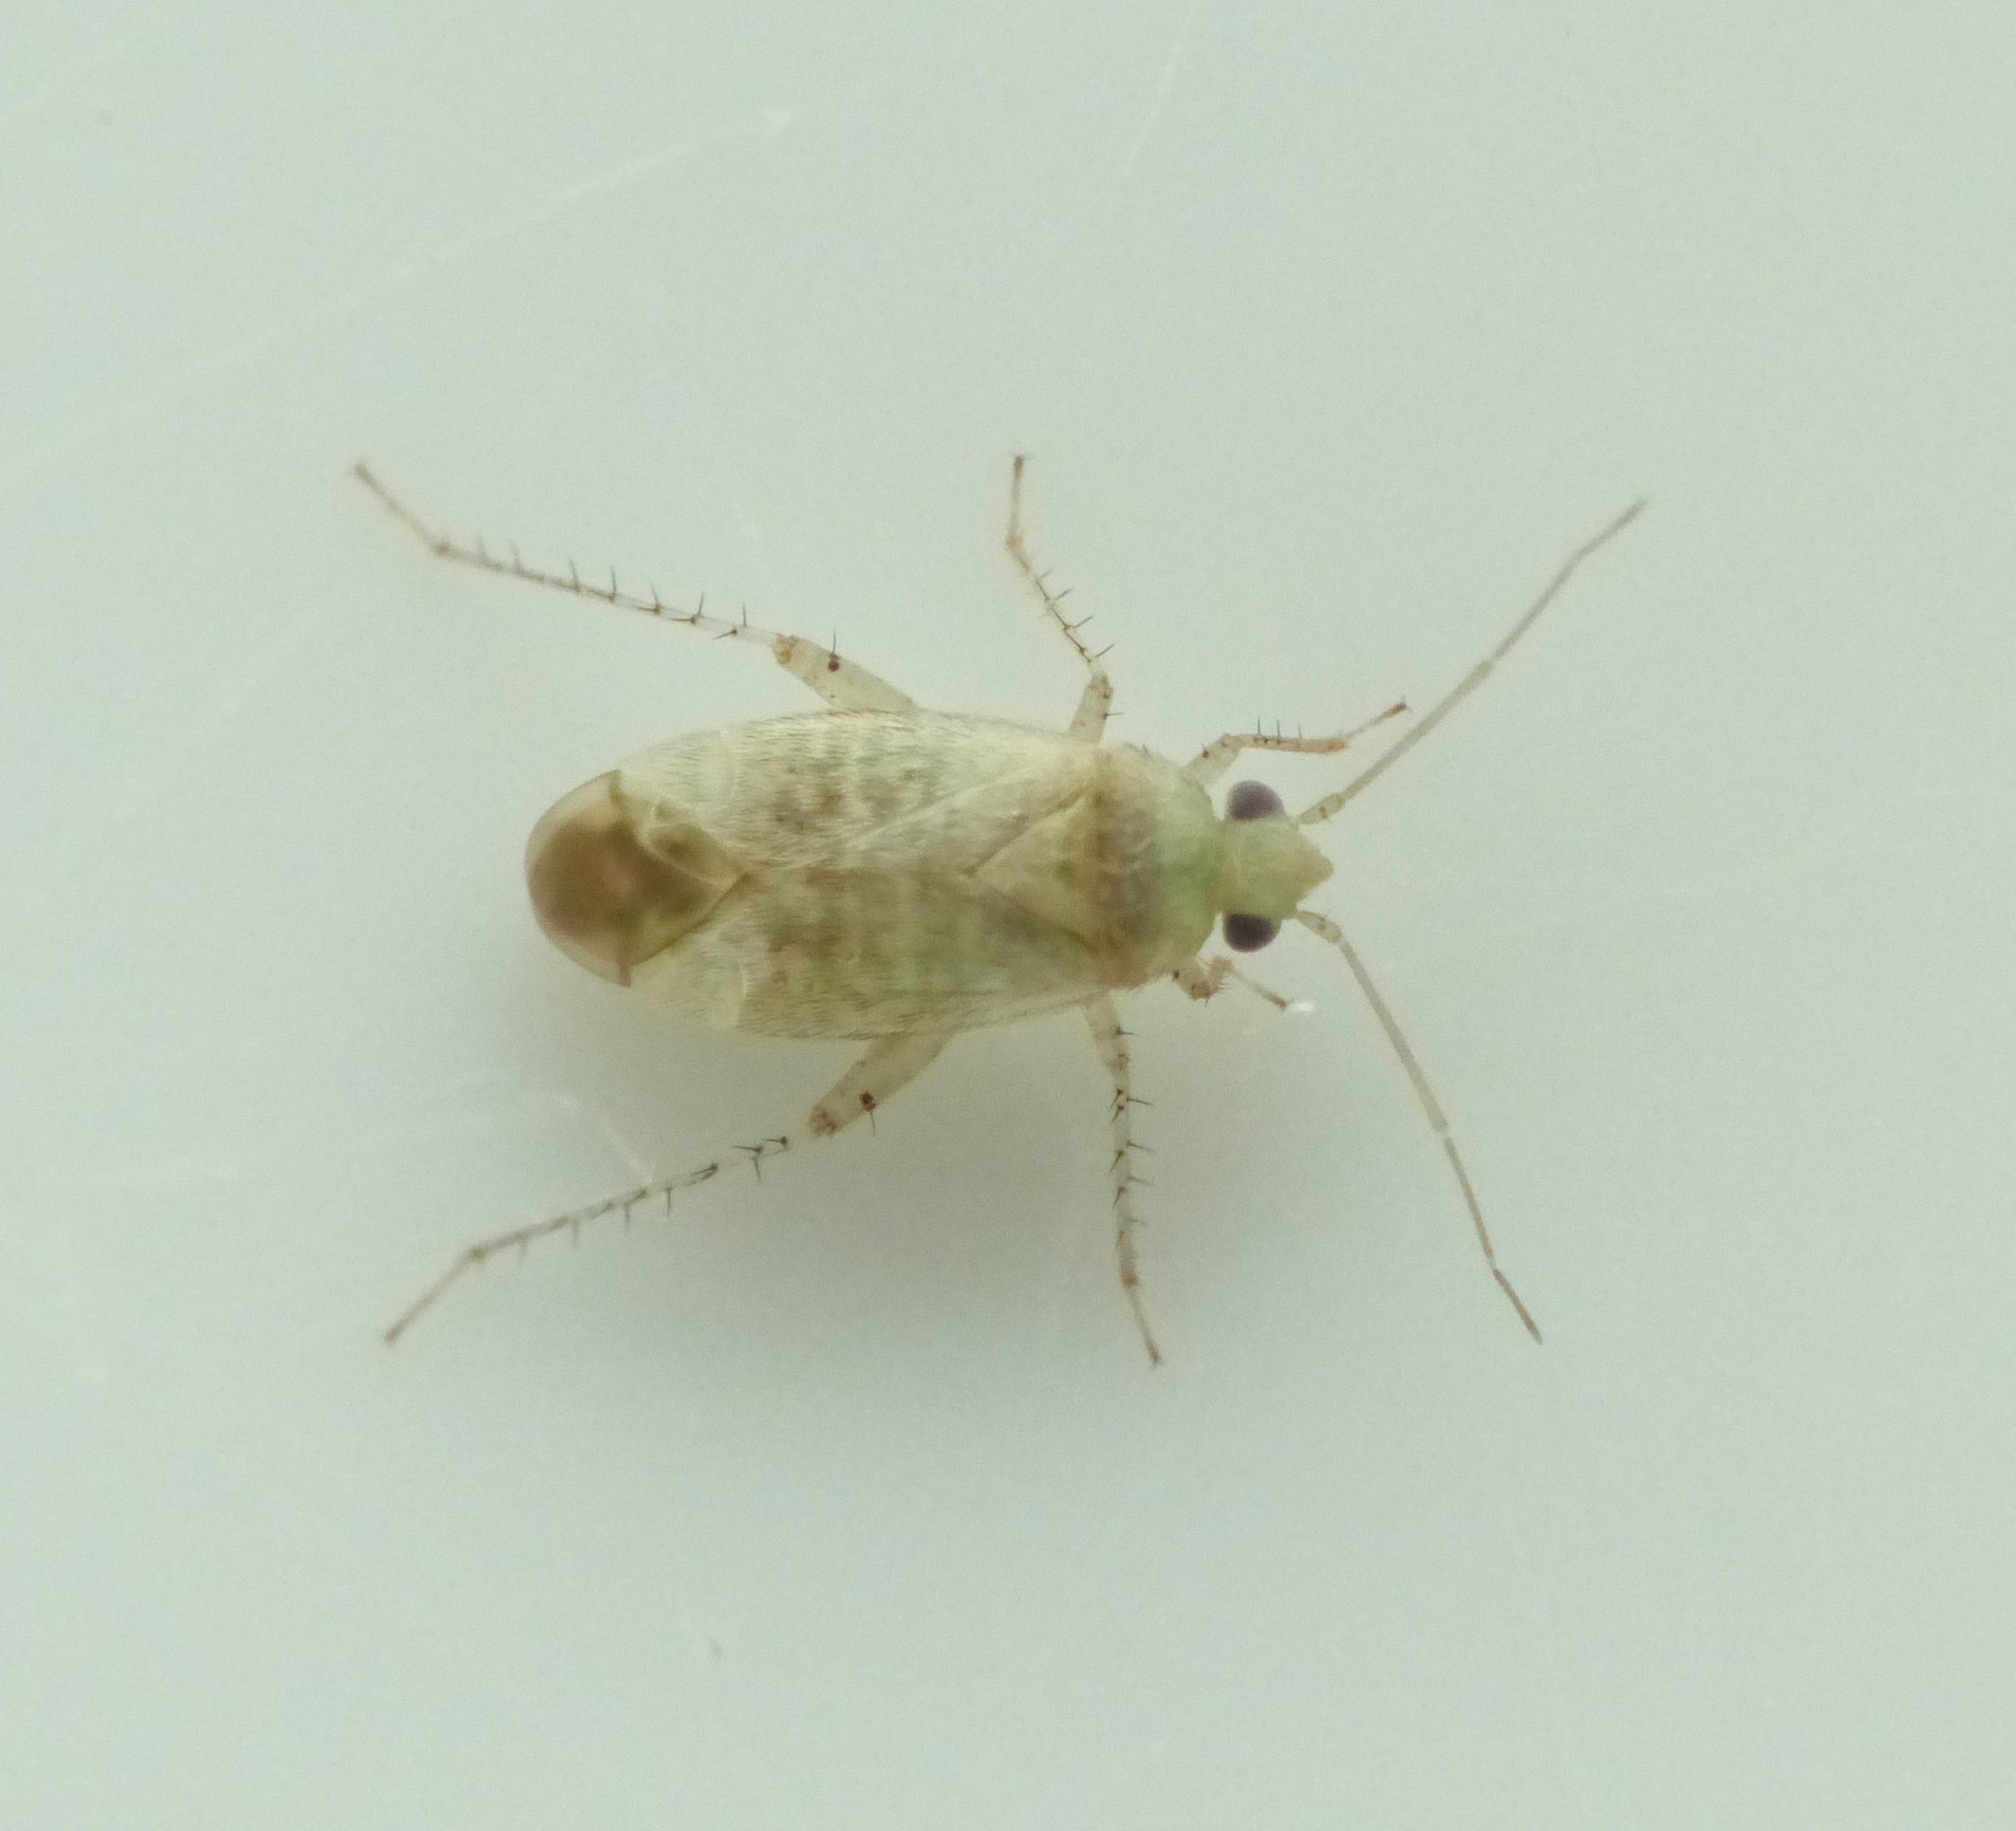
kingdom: Animalia
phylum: Arthropoda
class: Insecta
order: Hemiptera
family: Miridae
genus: Psallus
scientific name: Psallus haematodes
